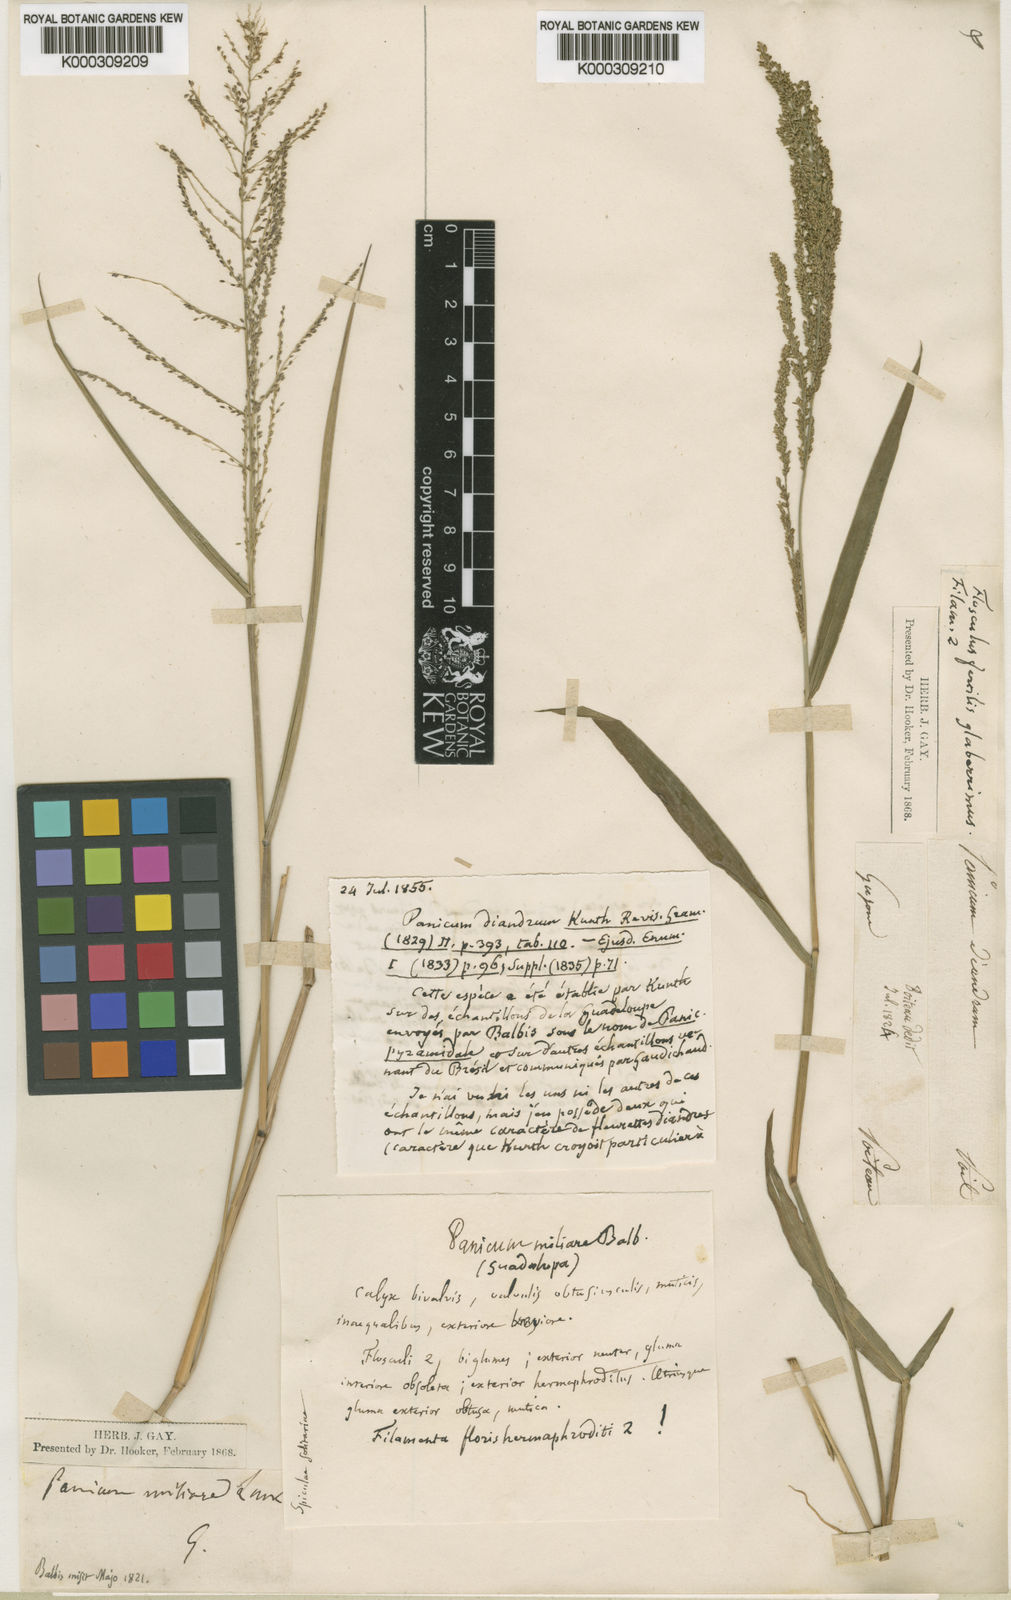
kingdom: Plantae
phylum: Tracheophyta
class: Liliopsida
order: Poales
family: Poaceae
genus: Steinchisma
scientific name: Steinchisma laxum
